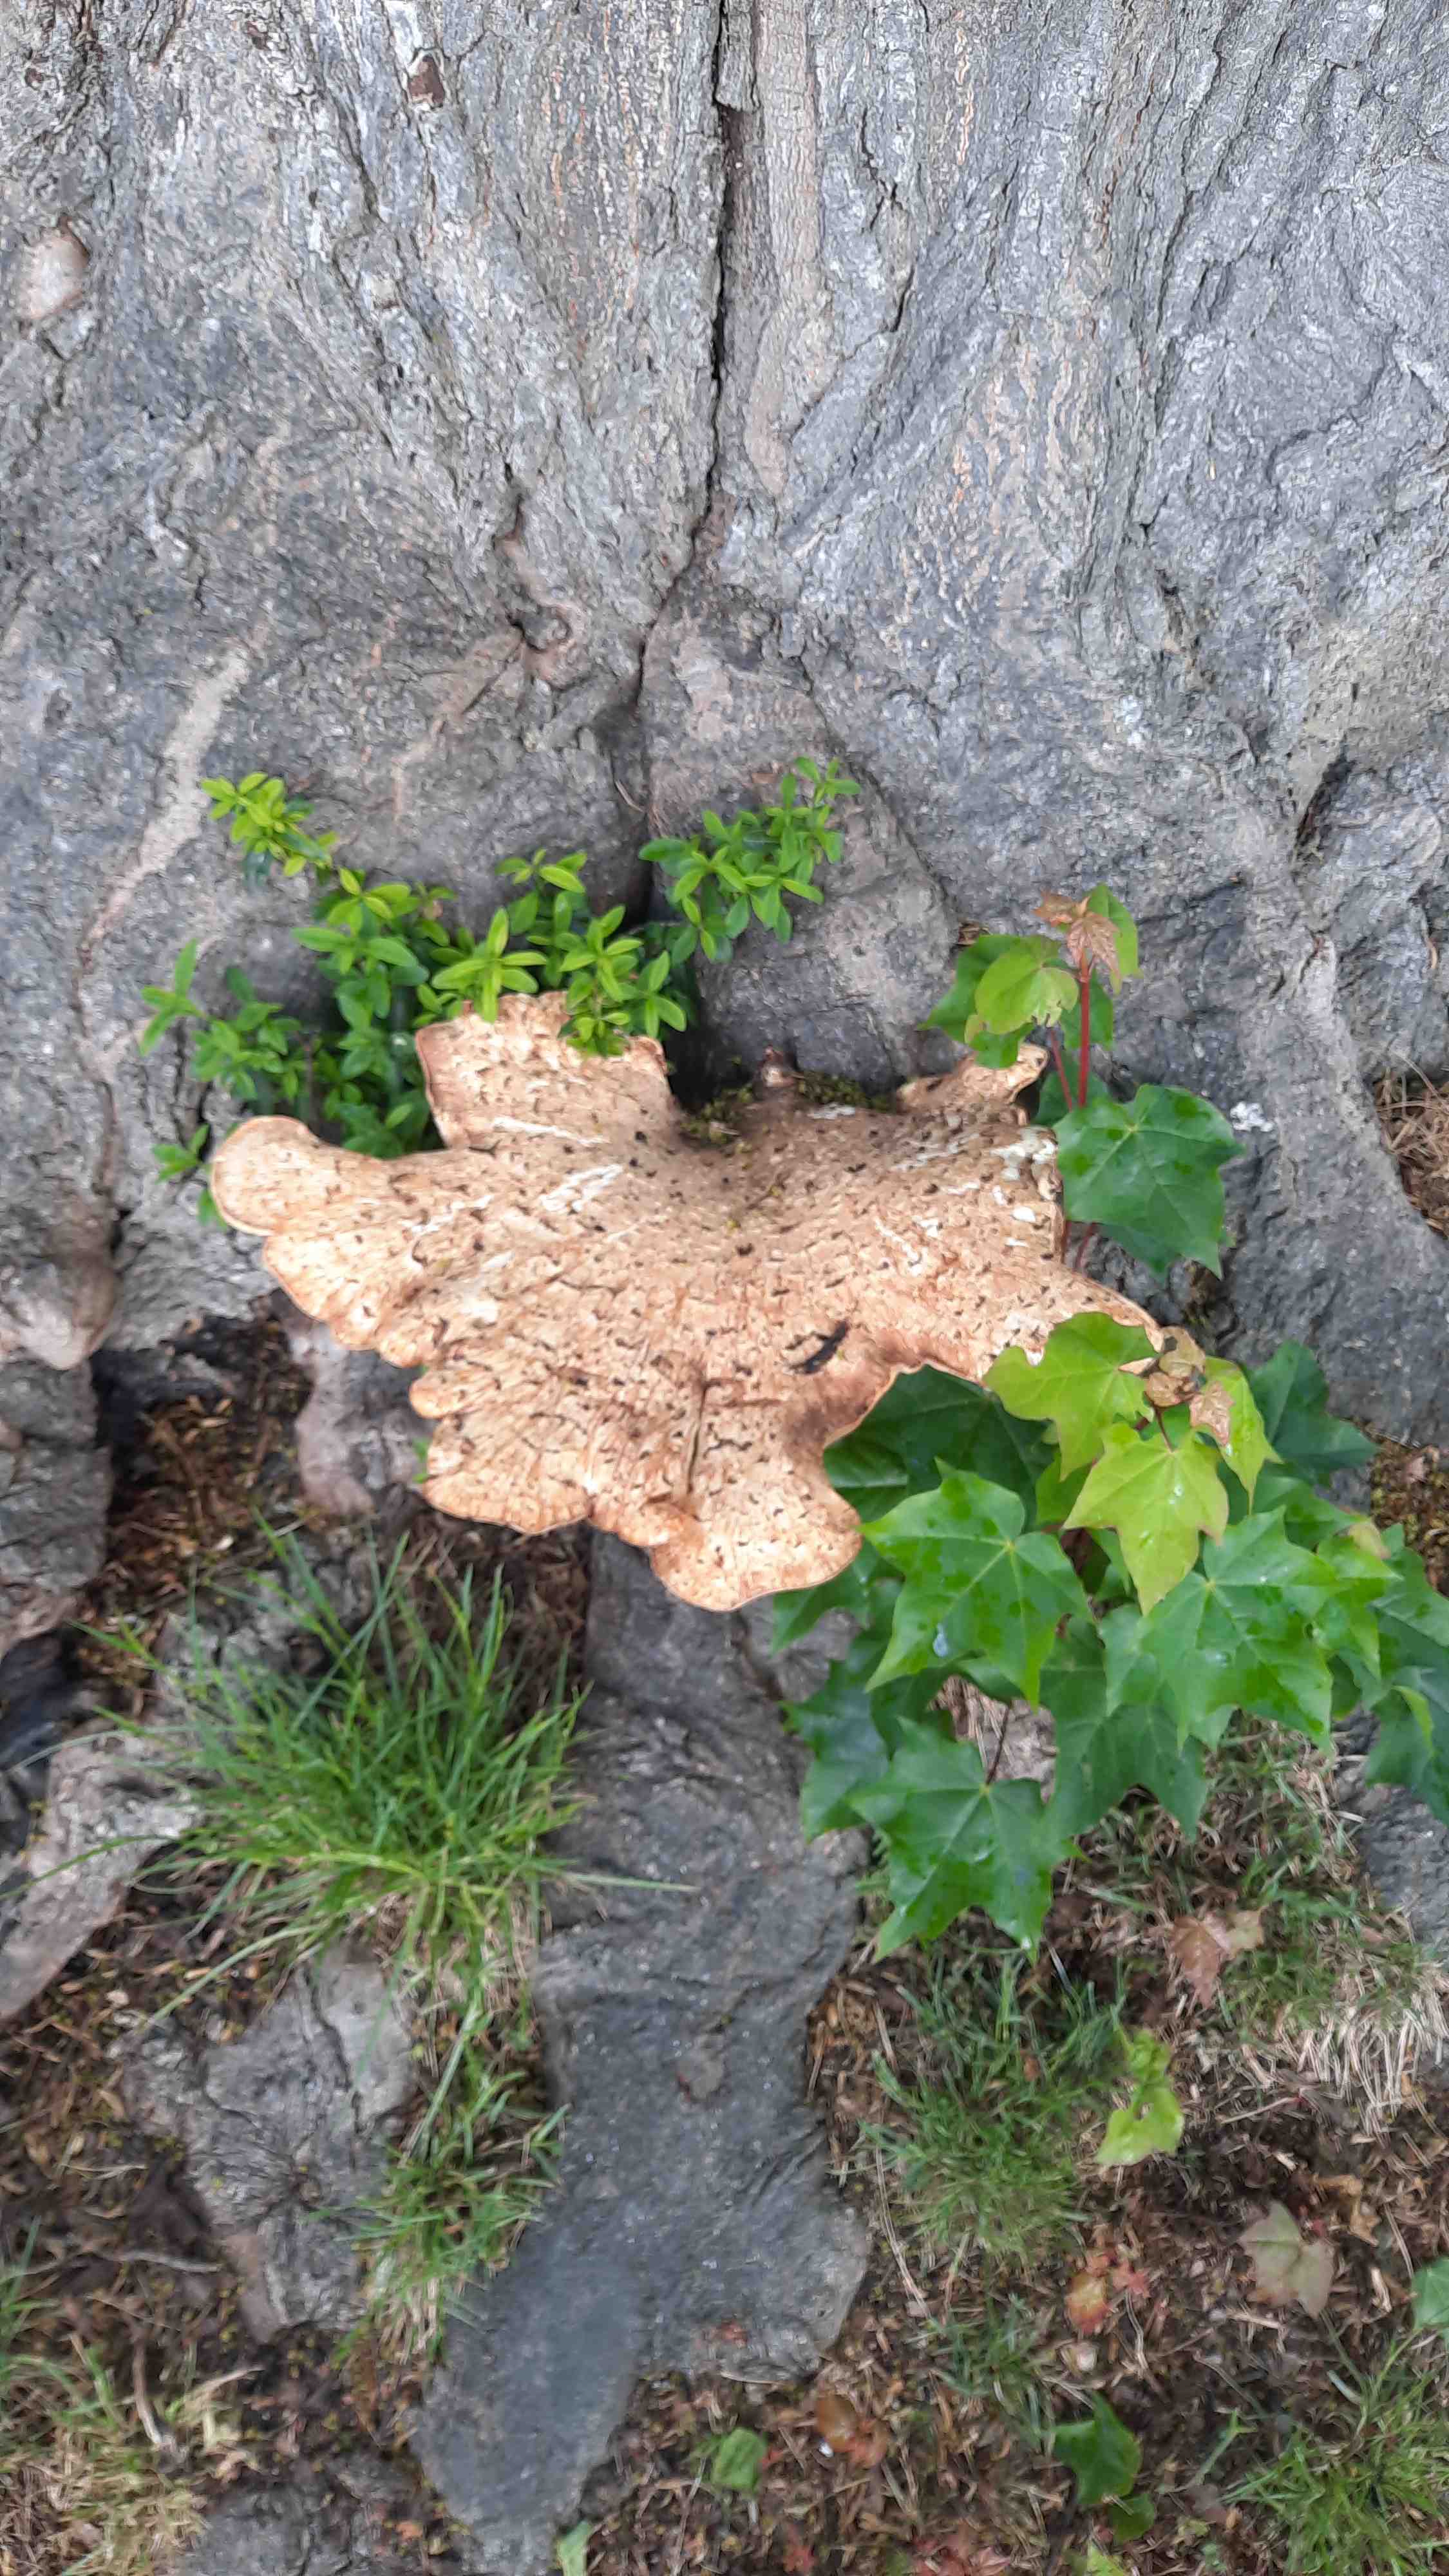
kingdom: Fungi
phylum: Basidiomycota
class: Agaricomycetes
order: Polyporales
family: Polyporaceae
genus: Cerioporus
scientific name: Cerioporus squamosus
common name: skællet stilkporesvamp
